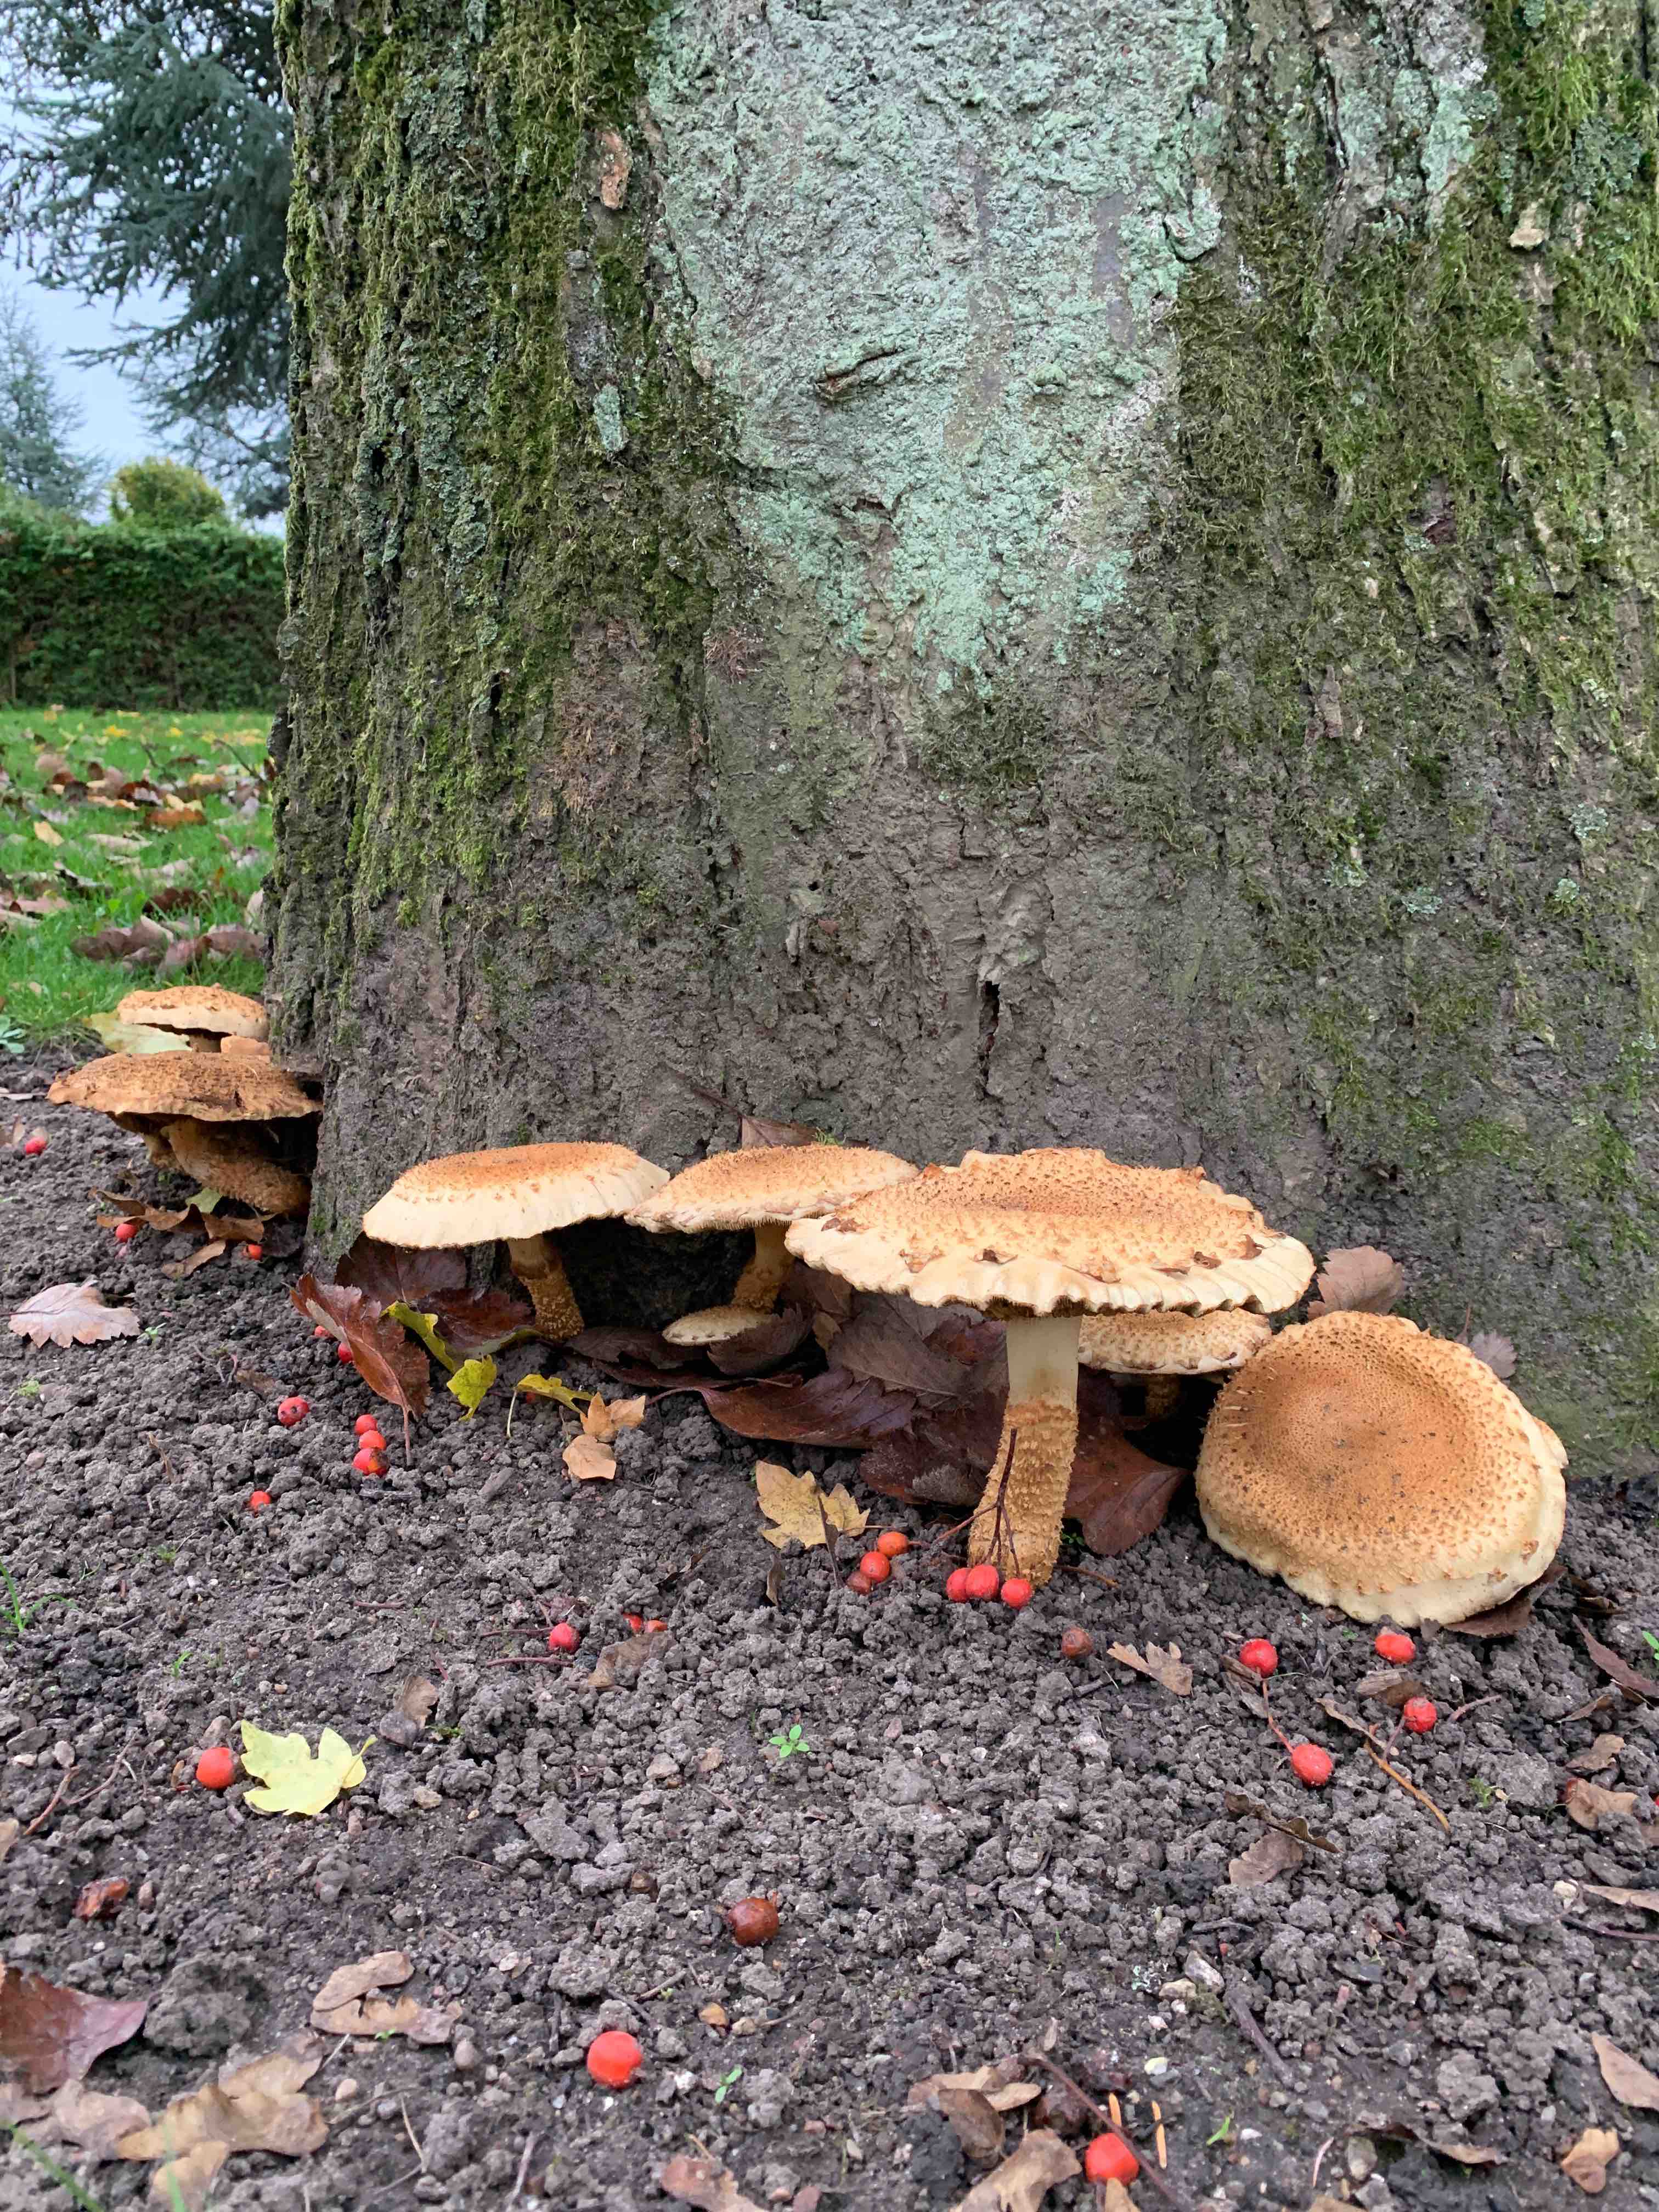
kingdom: Fungi
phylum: Basidiomycota
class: Agaricomycetes
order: Agaricales
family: Strophariaceae
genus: Pholiota
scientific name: Pholiota squarrosa
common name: krumskællet skælhat
